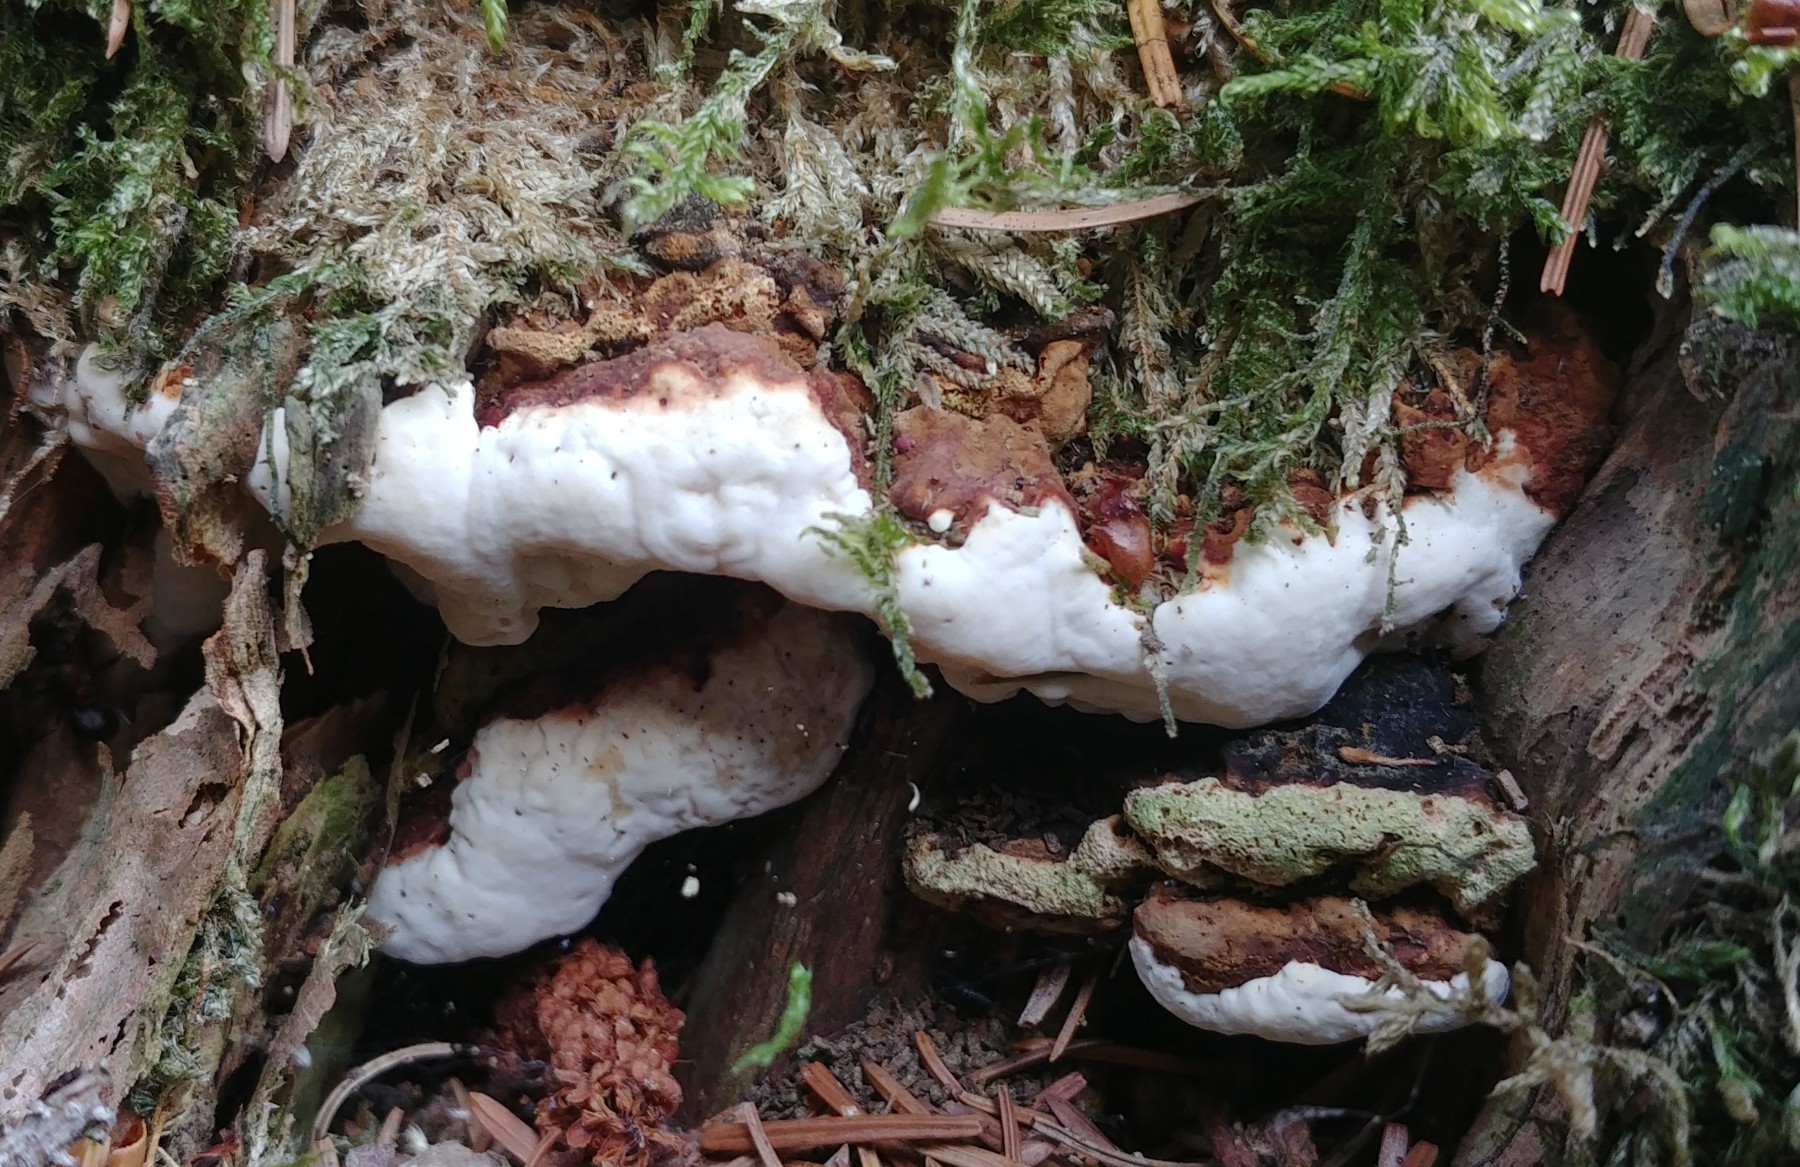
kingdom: Fungi
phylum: Basidiomycota
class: Agaricomycetes
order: Russulales
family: Bondarzewiaceae
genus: Heterobasidion
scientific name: Heterobasidion annosum
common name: almindelig rodfordærver
